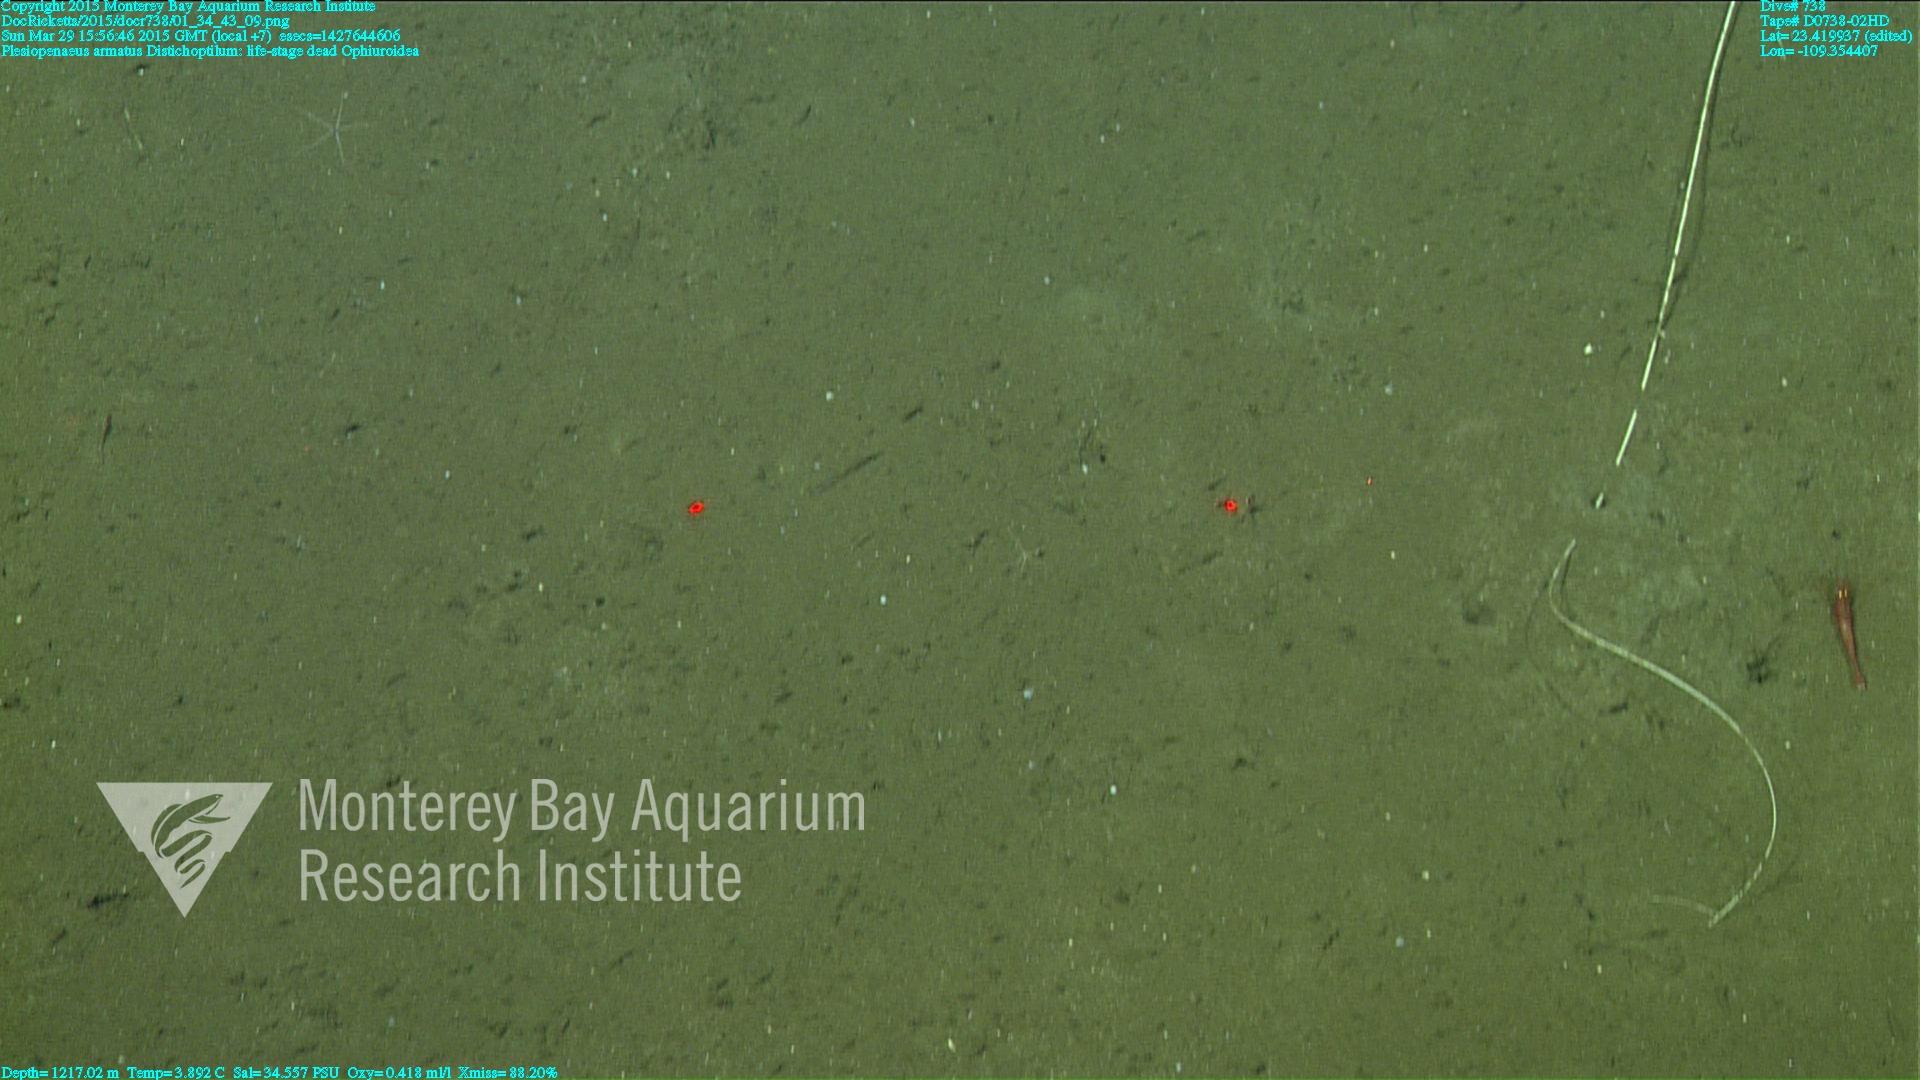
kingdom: Animalia
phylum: Cnidaria
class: Anthozoa
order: Scleralcyonacea
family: Protoptilidae
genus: Distichoptilum
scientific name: Distichoptilum
